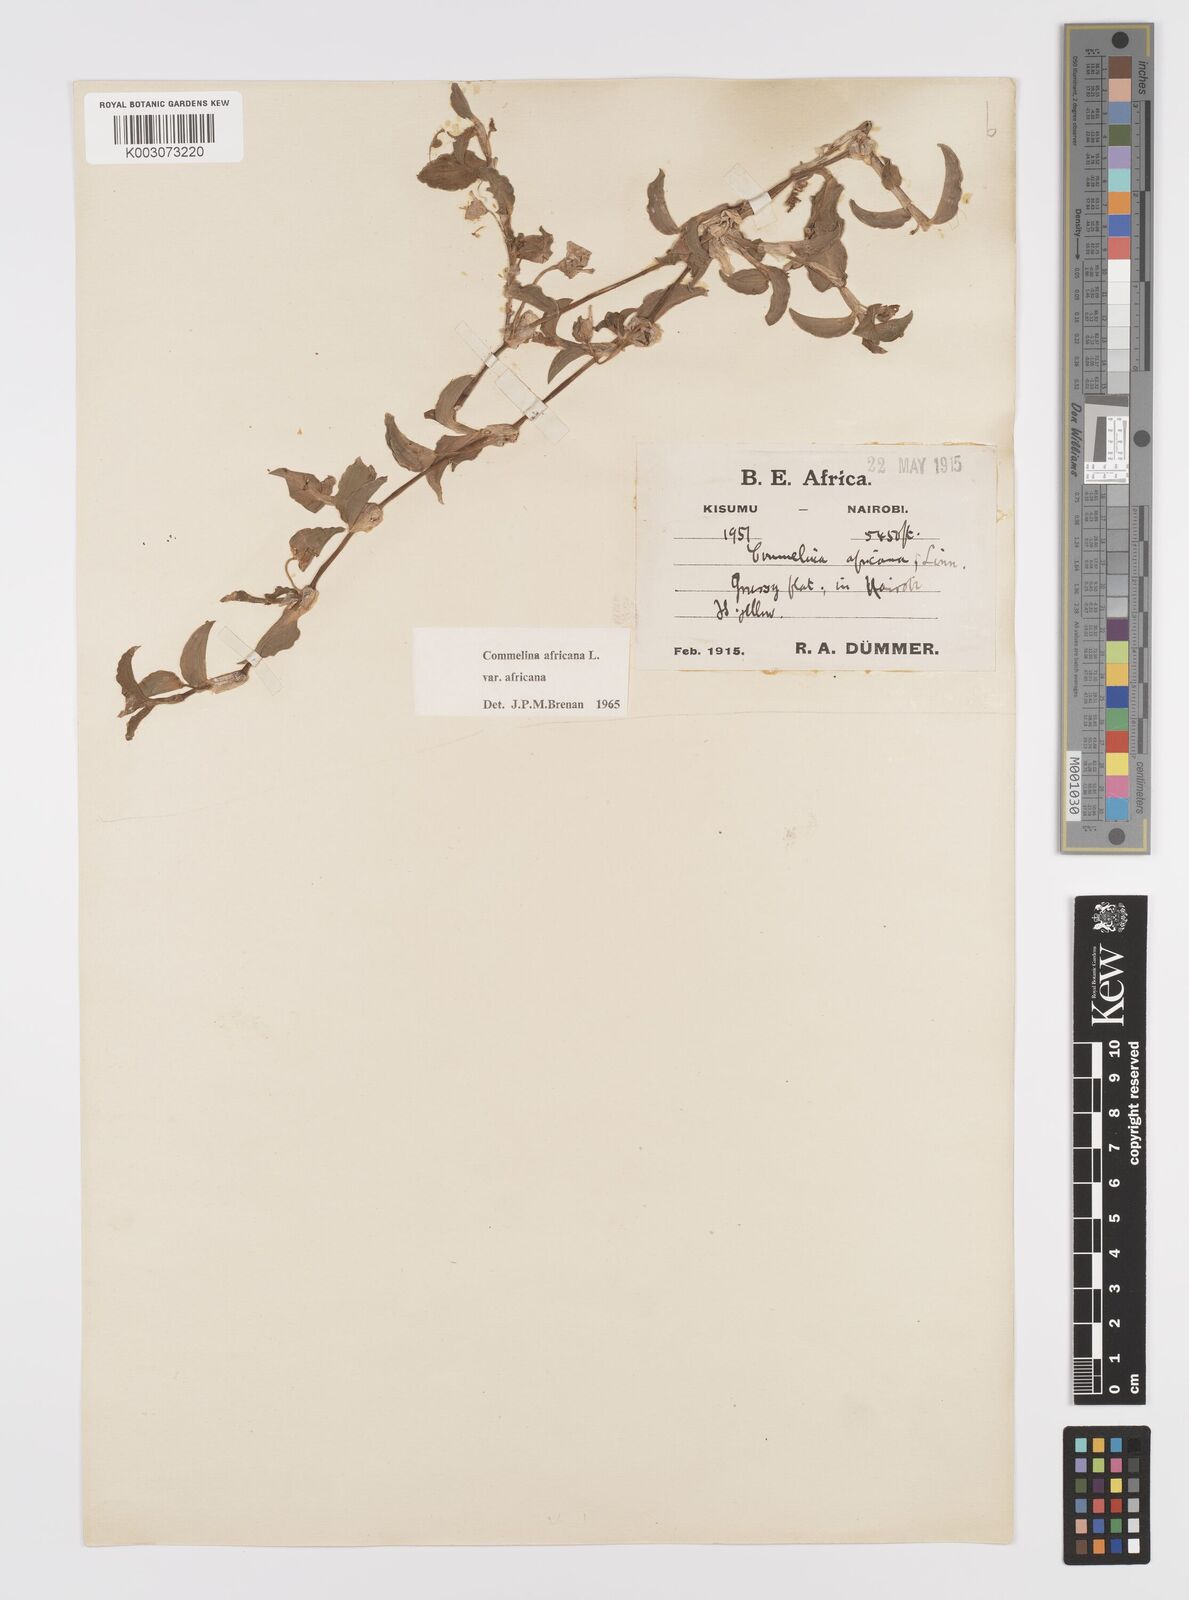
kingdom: Plantae
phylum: Tracheophyta
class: Liliopsida
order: Commelinales
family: Commelinaceae
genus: Commelina
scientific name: Commelina africana
